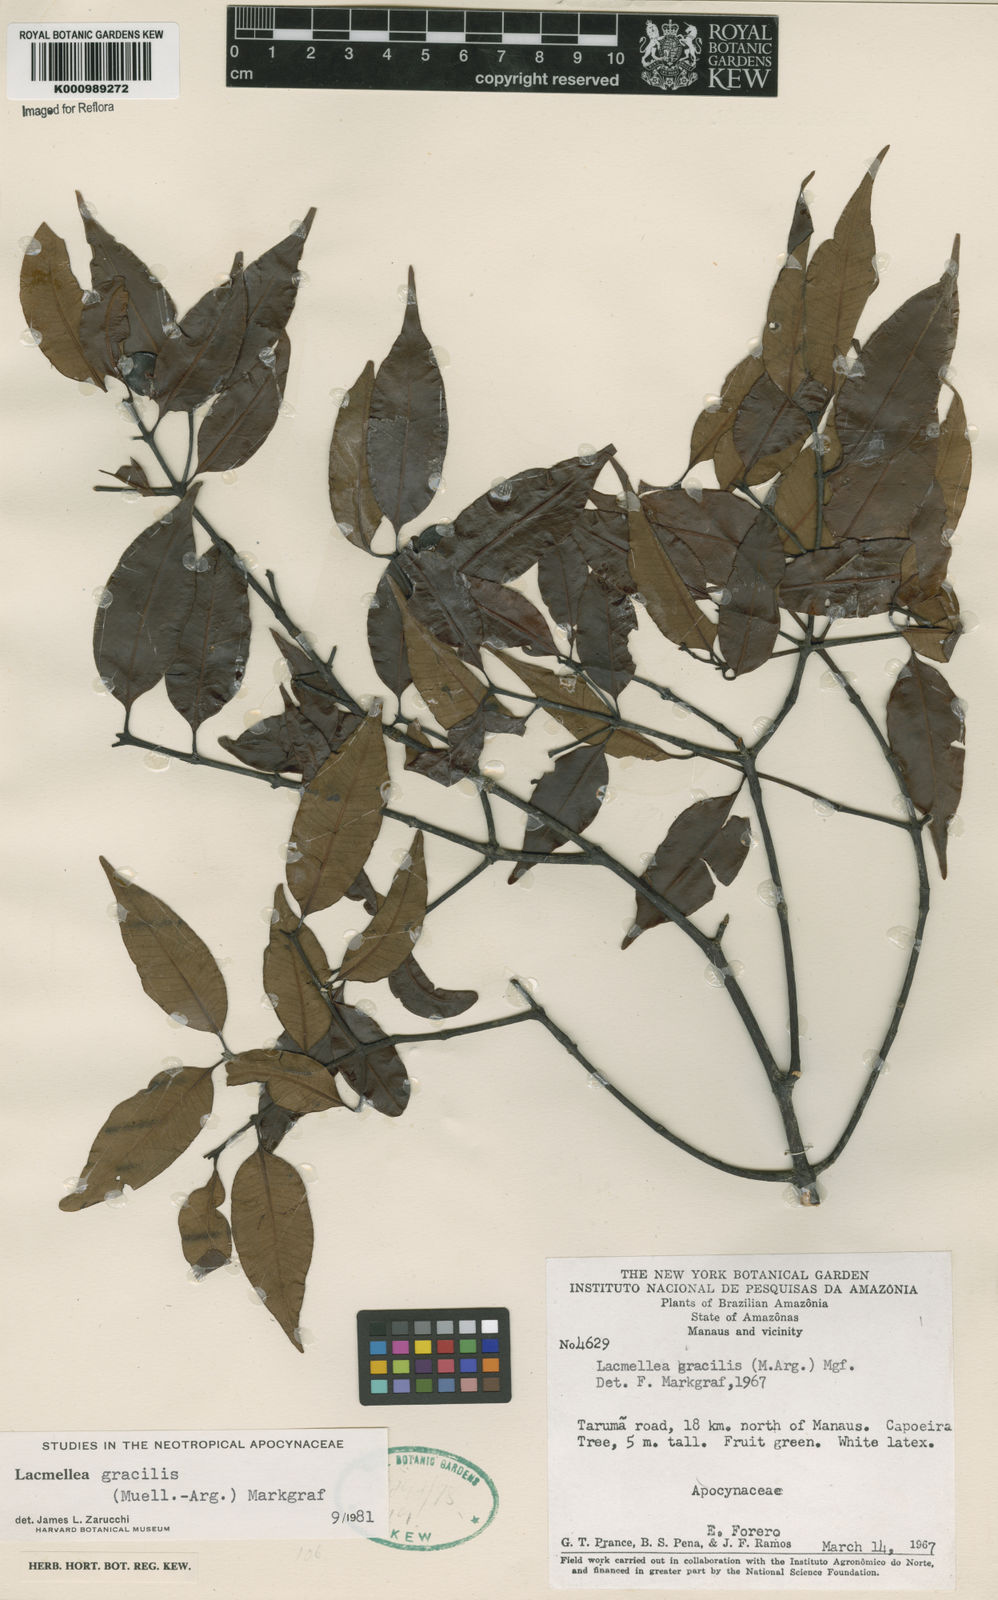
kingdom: Plantae
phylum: Tracheophyta
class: Magnoliopsida
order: Gentianales
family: Apocynaceae
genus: Lacmellea
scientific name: Lacmellea
